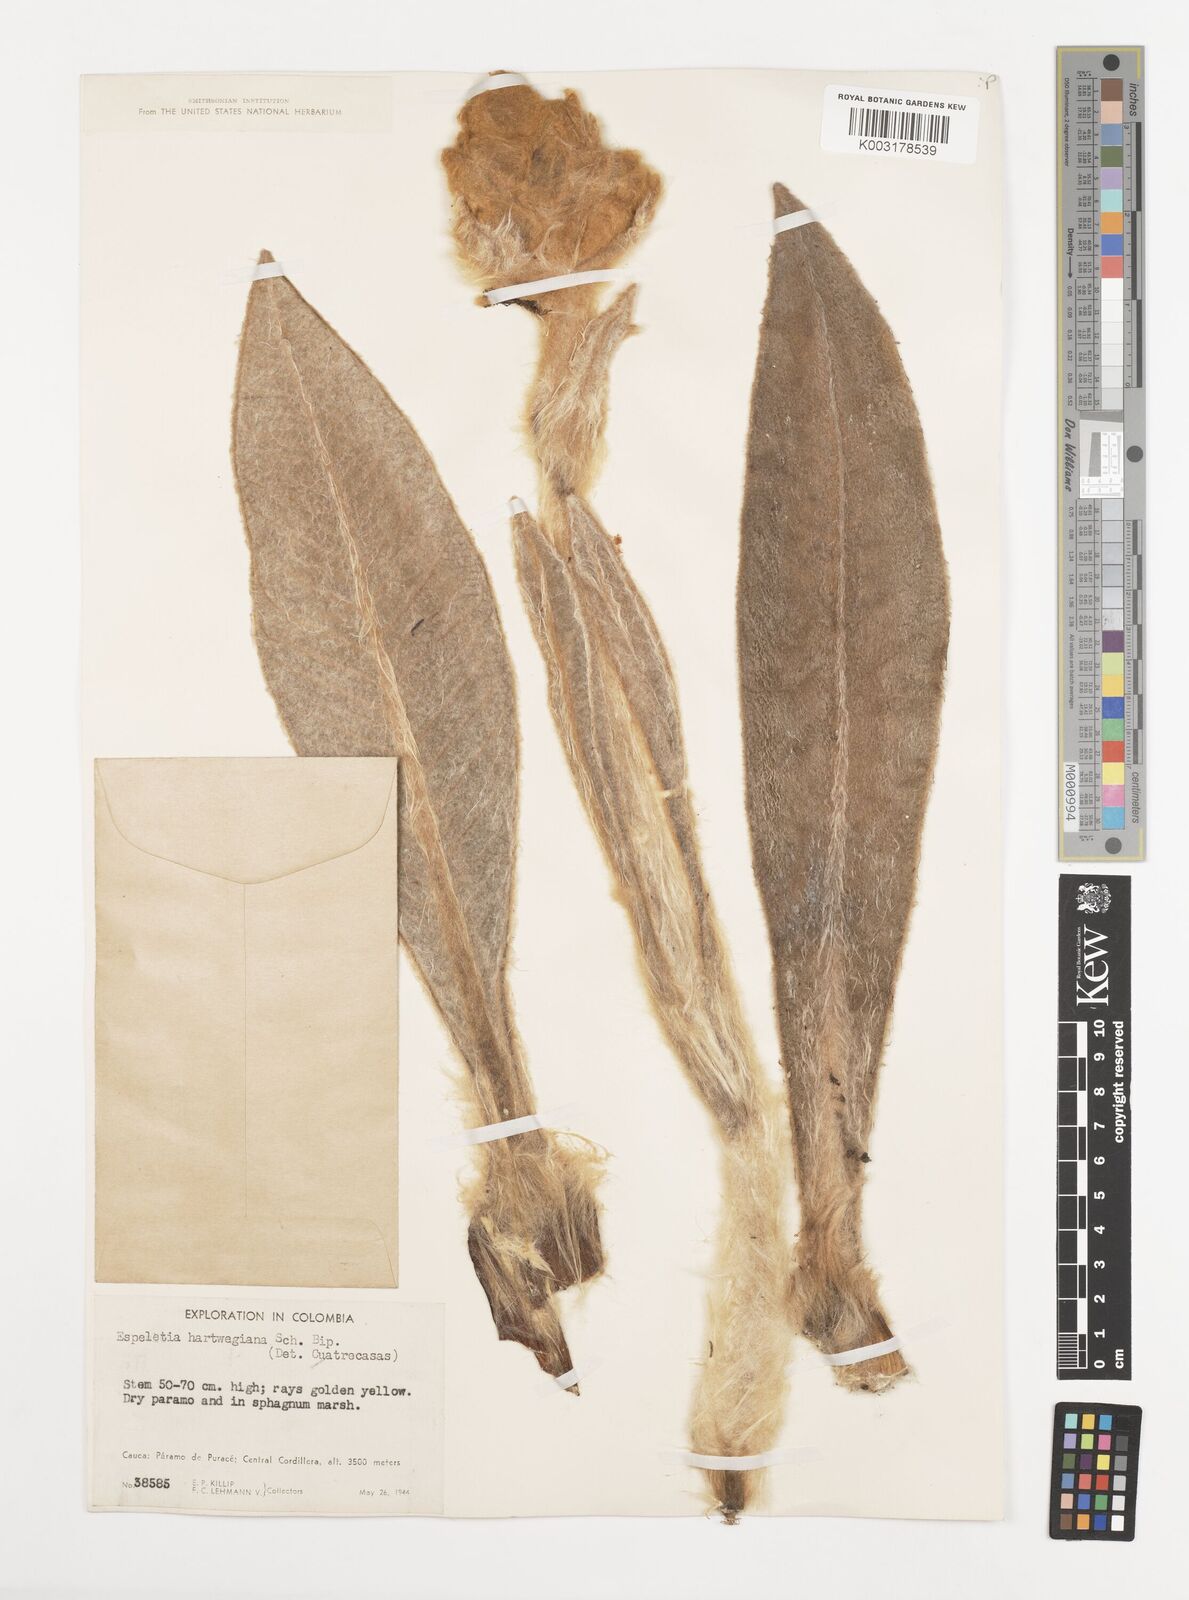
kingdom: Plantae
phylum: Tracheophyta
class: Magnoliopsida
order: Asterales
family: Asteraceae
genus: Espeletia
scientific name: Espeletia hartwegiana
